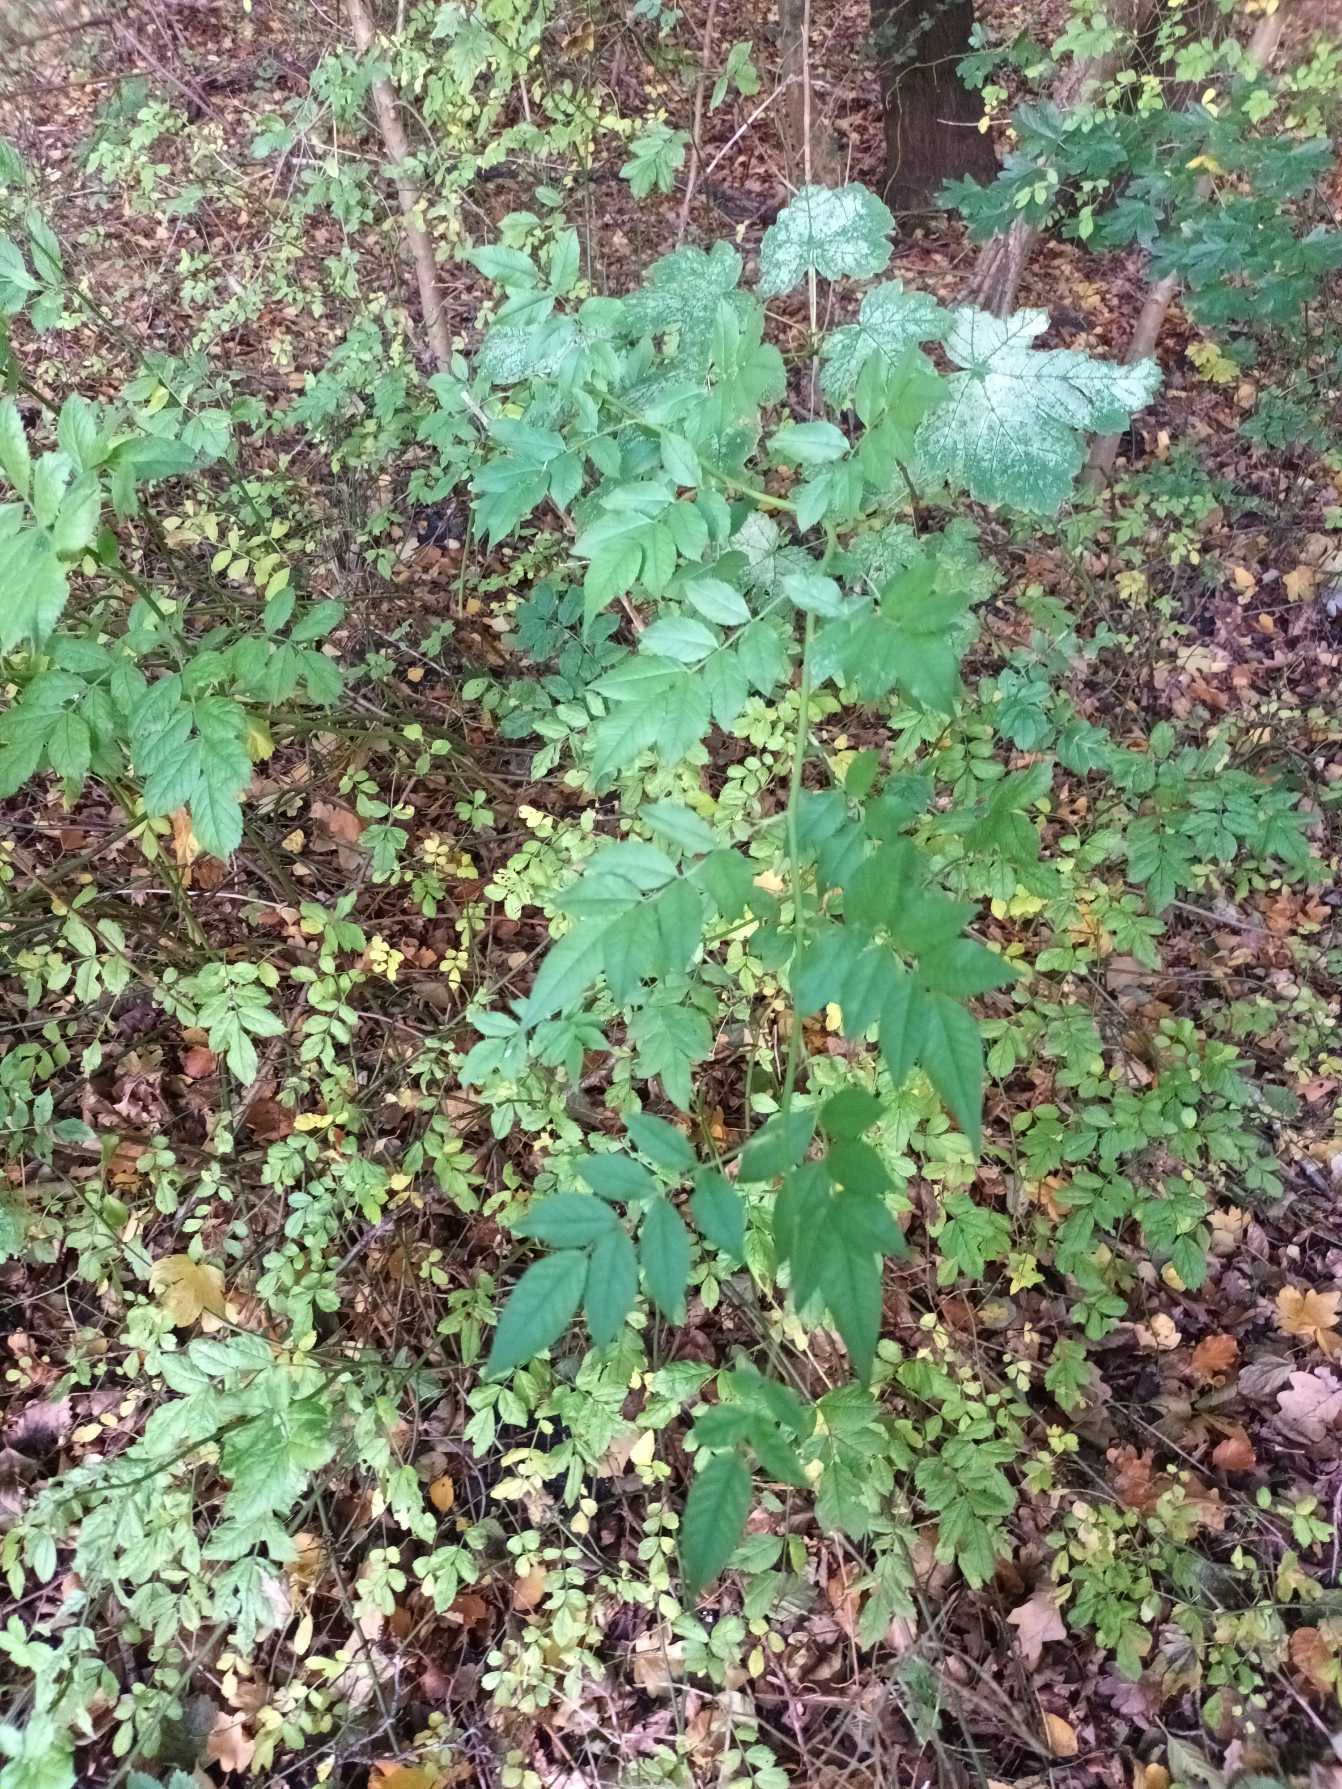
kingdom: Plantae
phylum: Tracheophyta
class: Magnoliopsida
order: Rosales
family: Rosaceae
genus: Rosa
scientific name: Rosa multiflora
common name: Mangeblomstret rose
